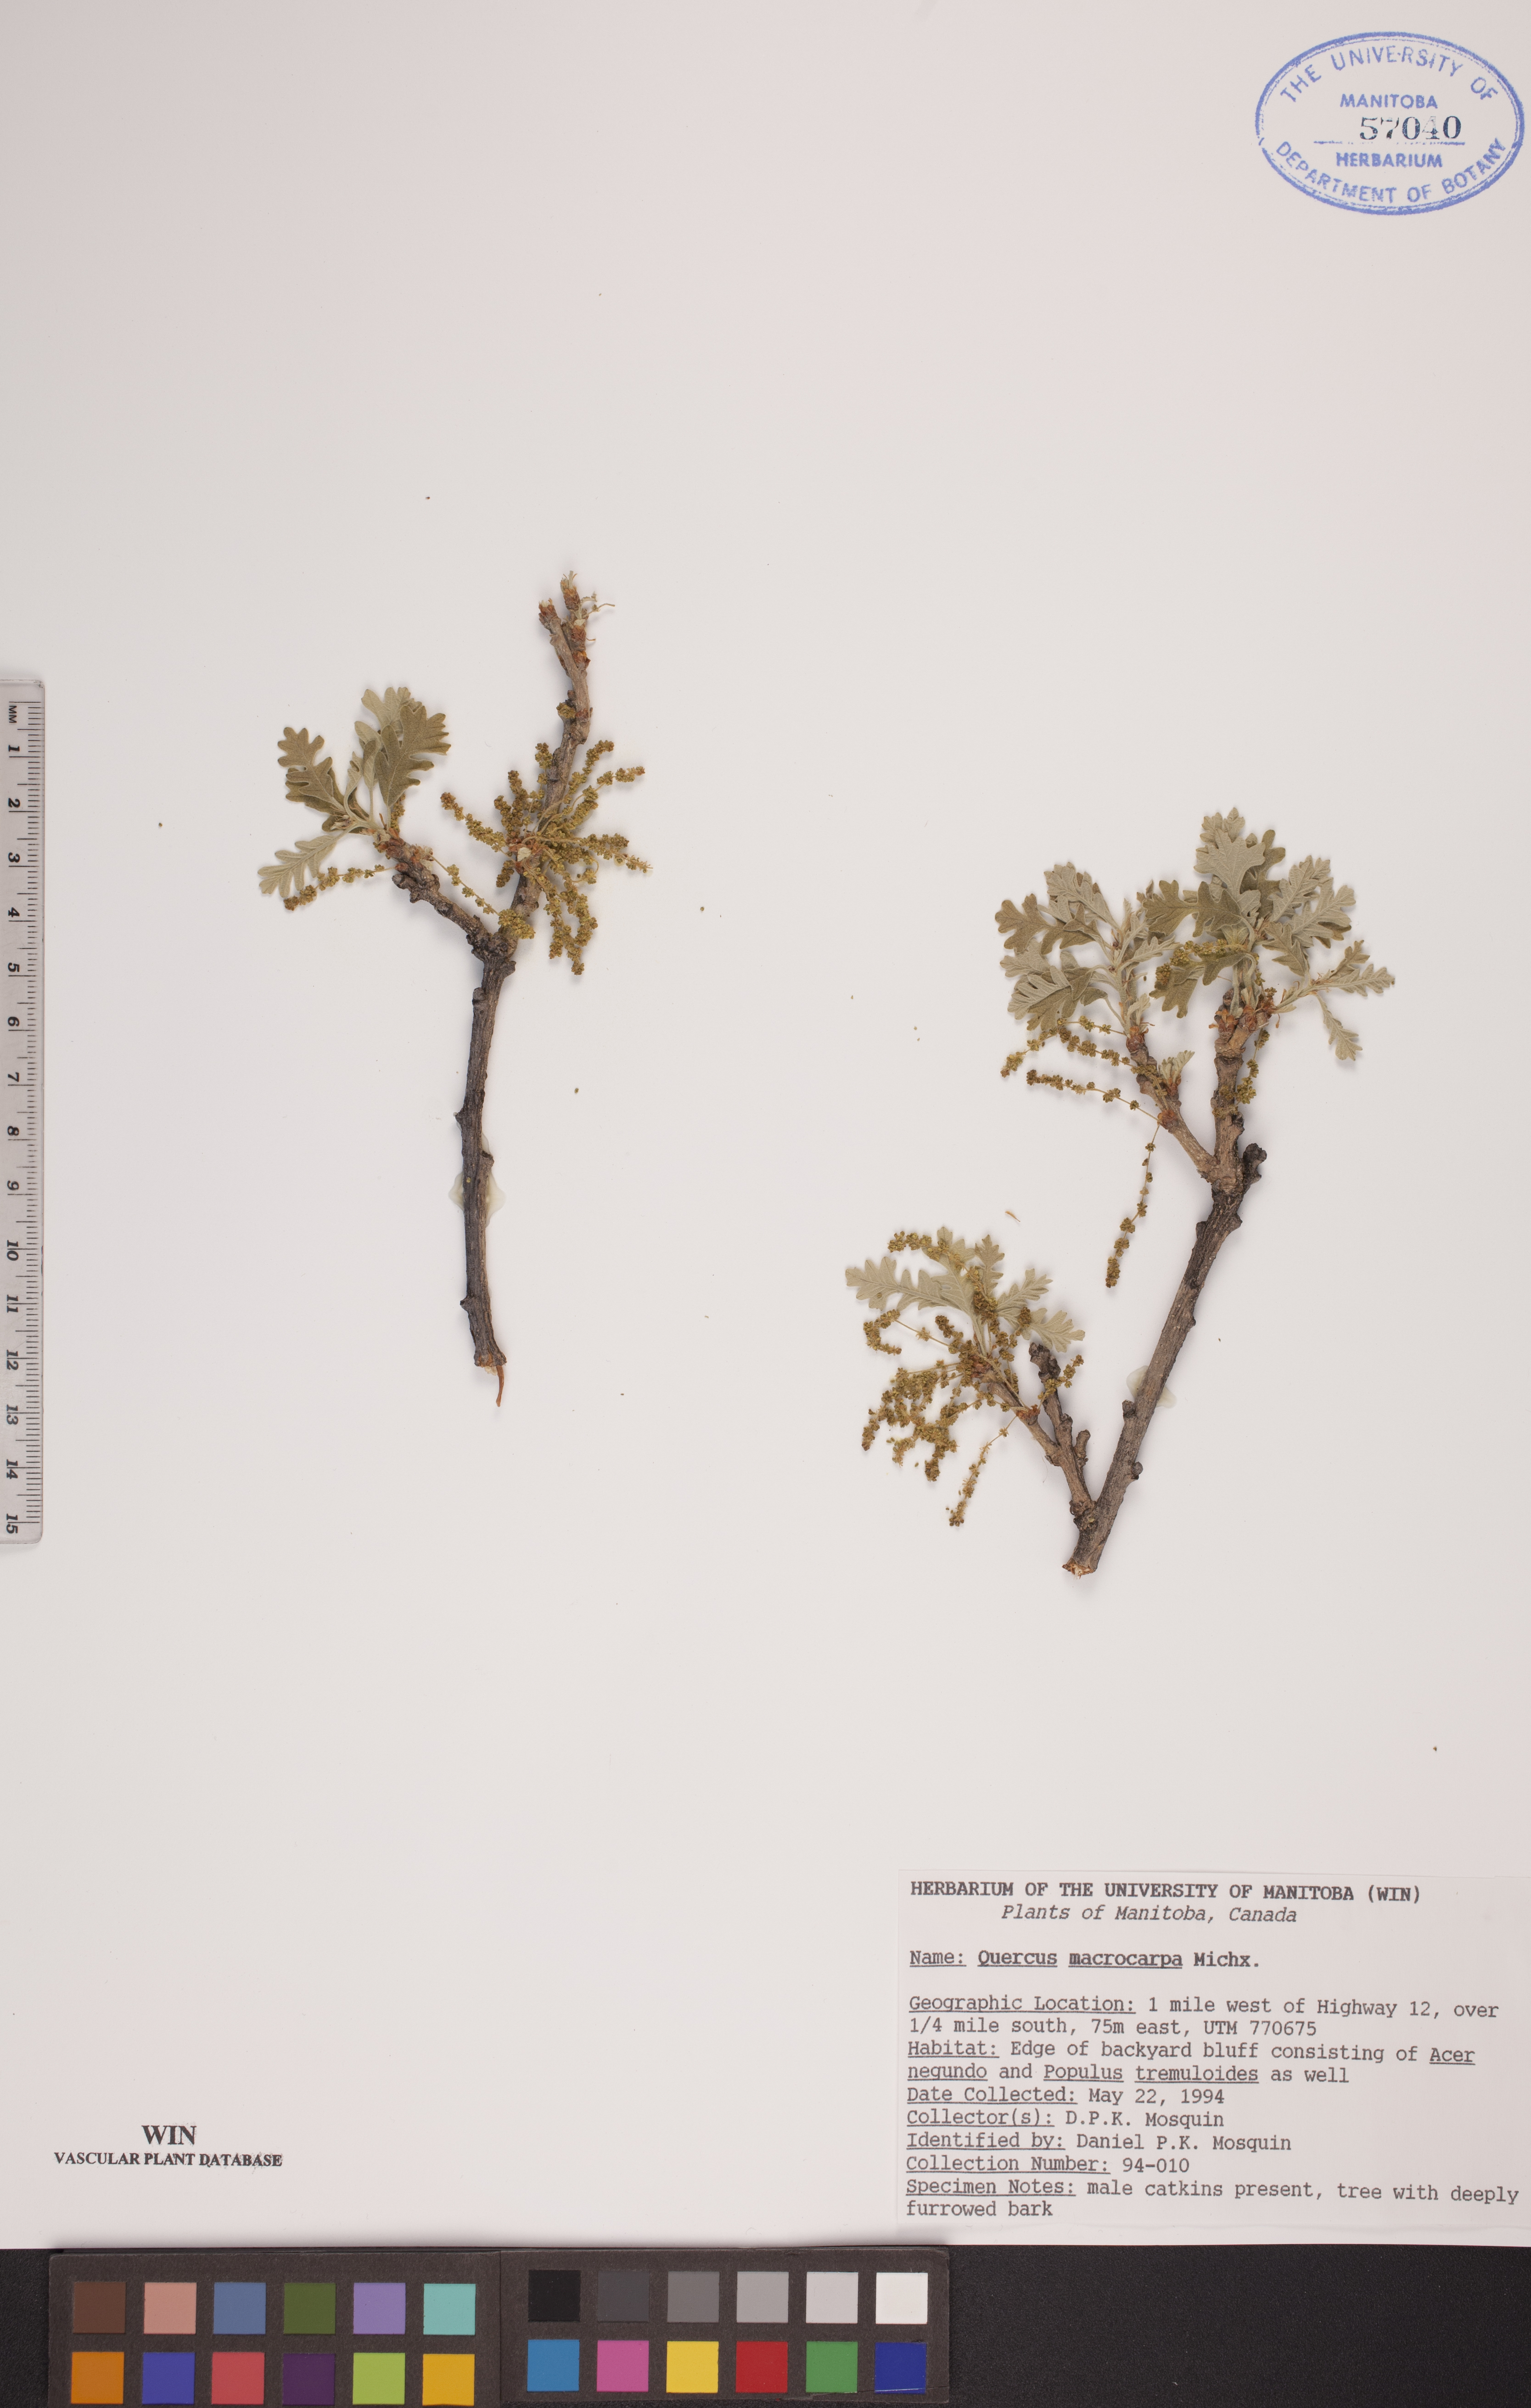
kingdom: Plantae
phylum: Tracheophyta
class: Magnoliopsida
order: Fagales
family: Fagaceae
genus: Quercus
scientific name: Quercus macrocarpa
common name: Bur oak
